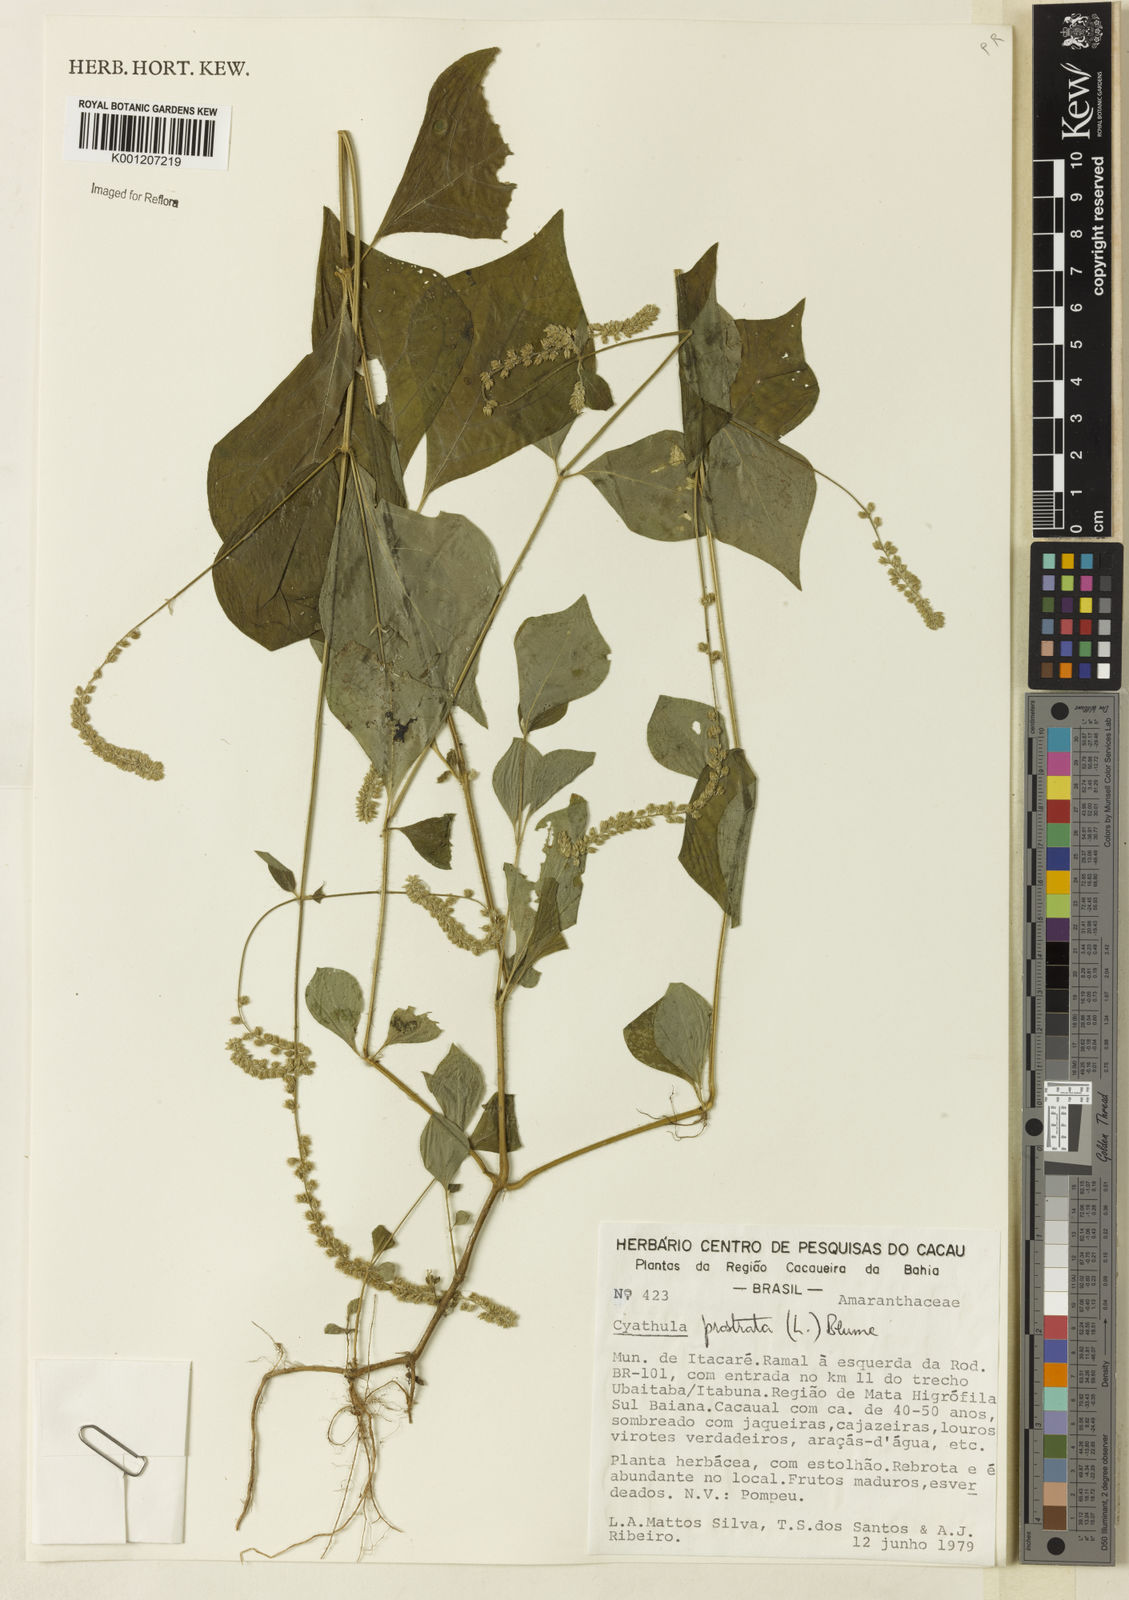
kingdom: Plantae
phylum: Tracheophyta
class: Magnoliopsida
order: Caryophyllales
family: Amaranthaceae
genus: Cyathula
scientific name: Cyathula prostrata
